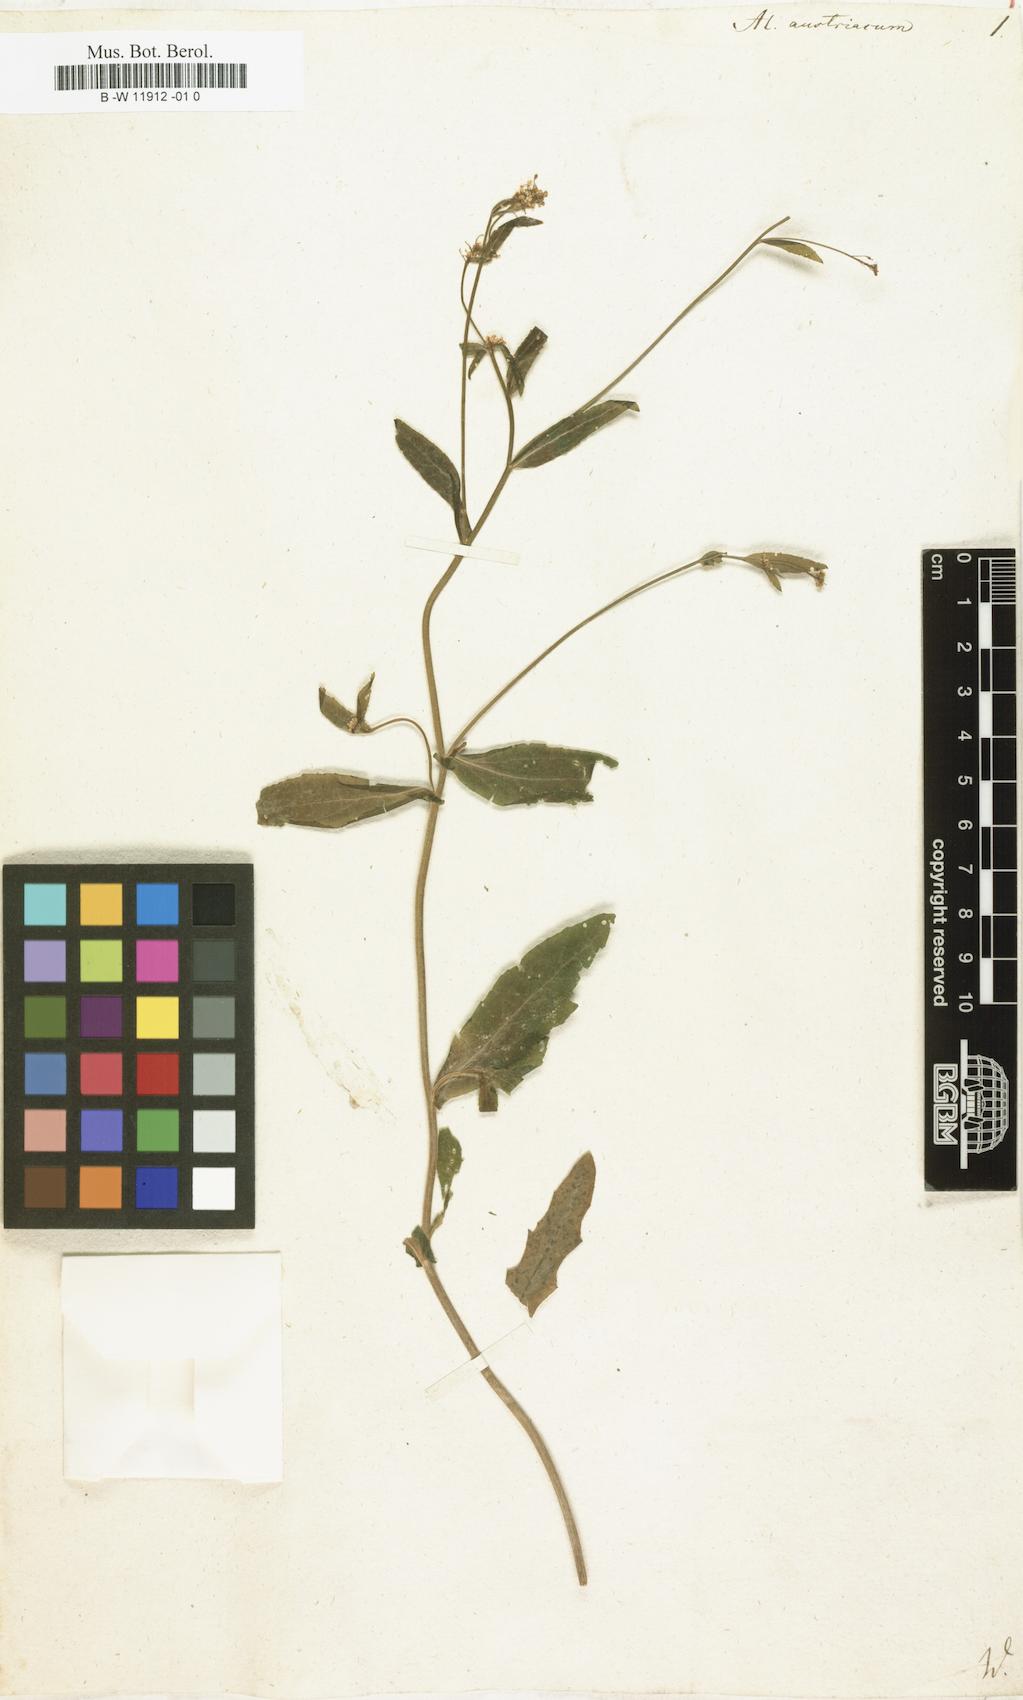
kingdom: Plantae
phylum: Tracheophyta
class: Magnoliopsida
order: Brassicales
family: Brassicaceae
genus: Alyssum
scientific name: Alyssum
